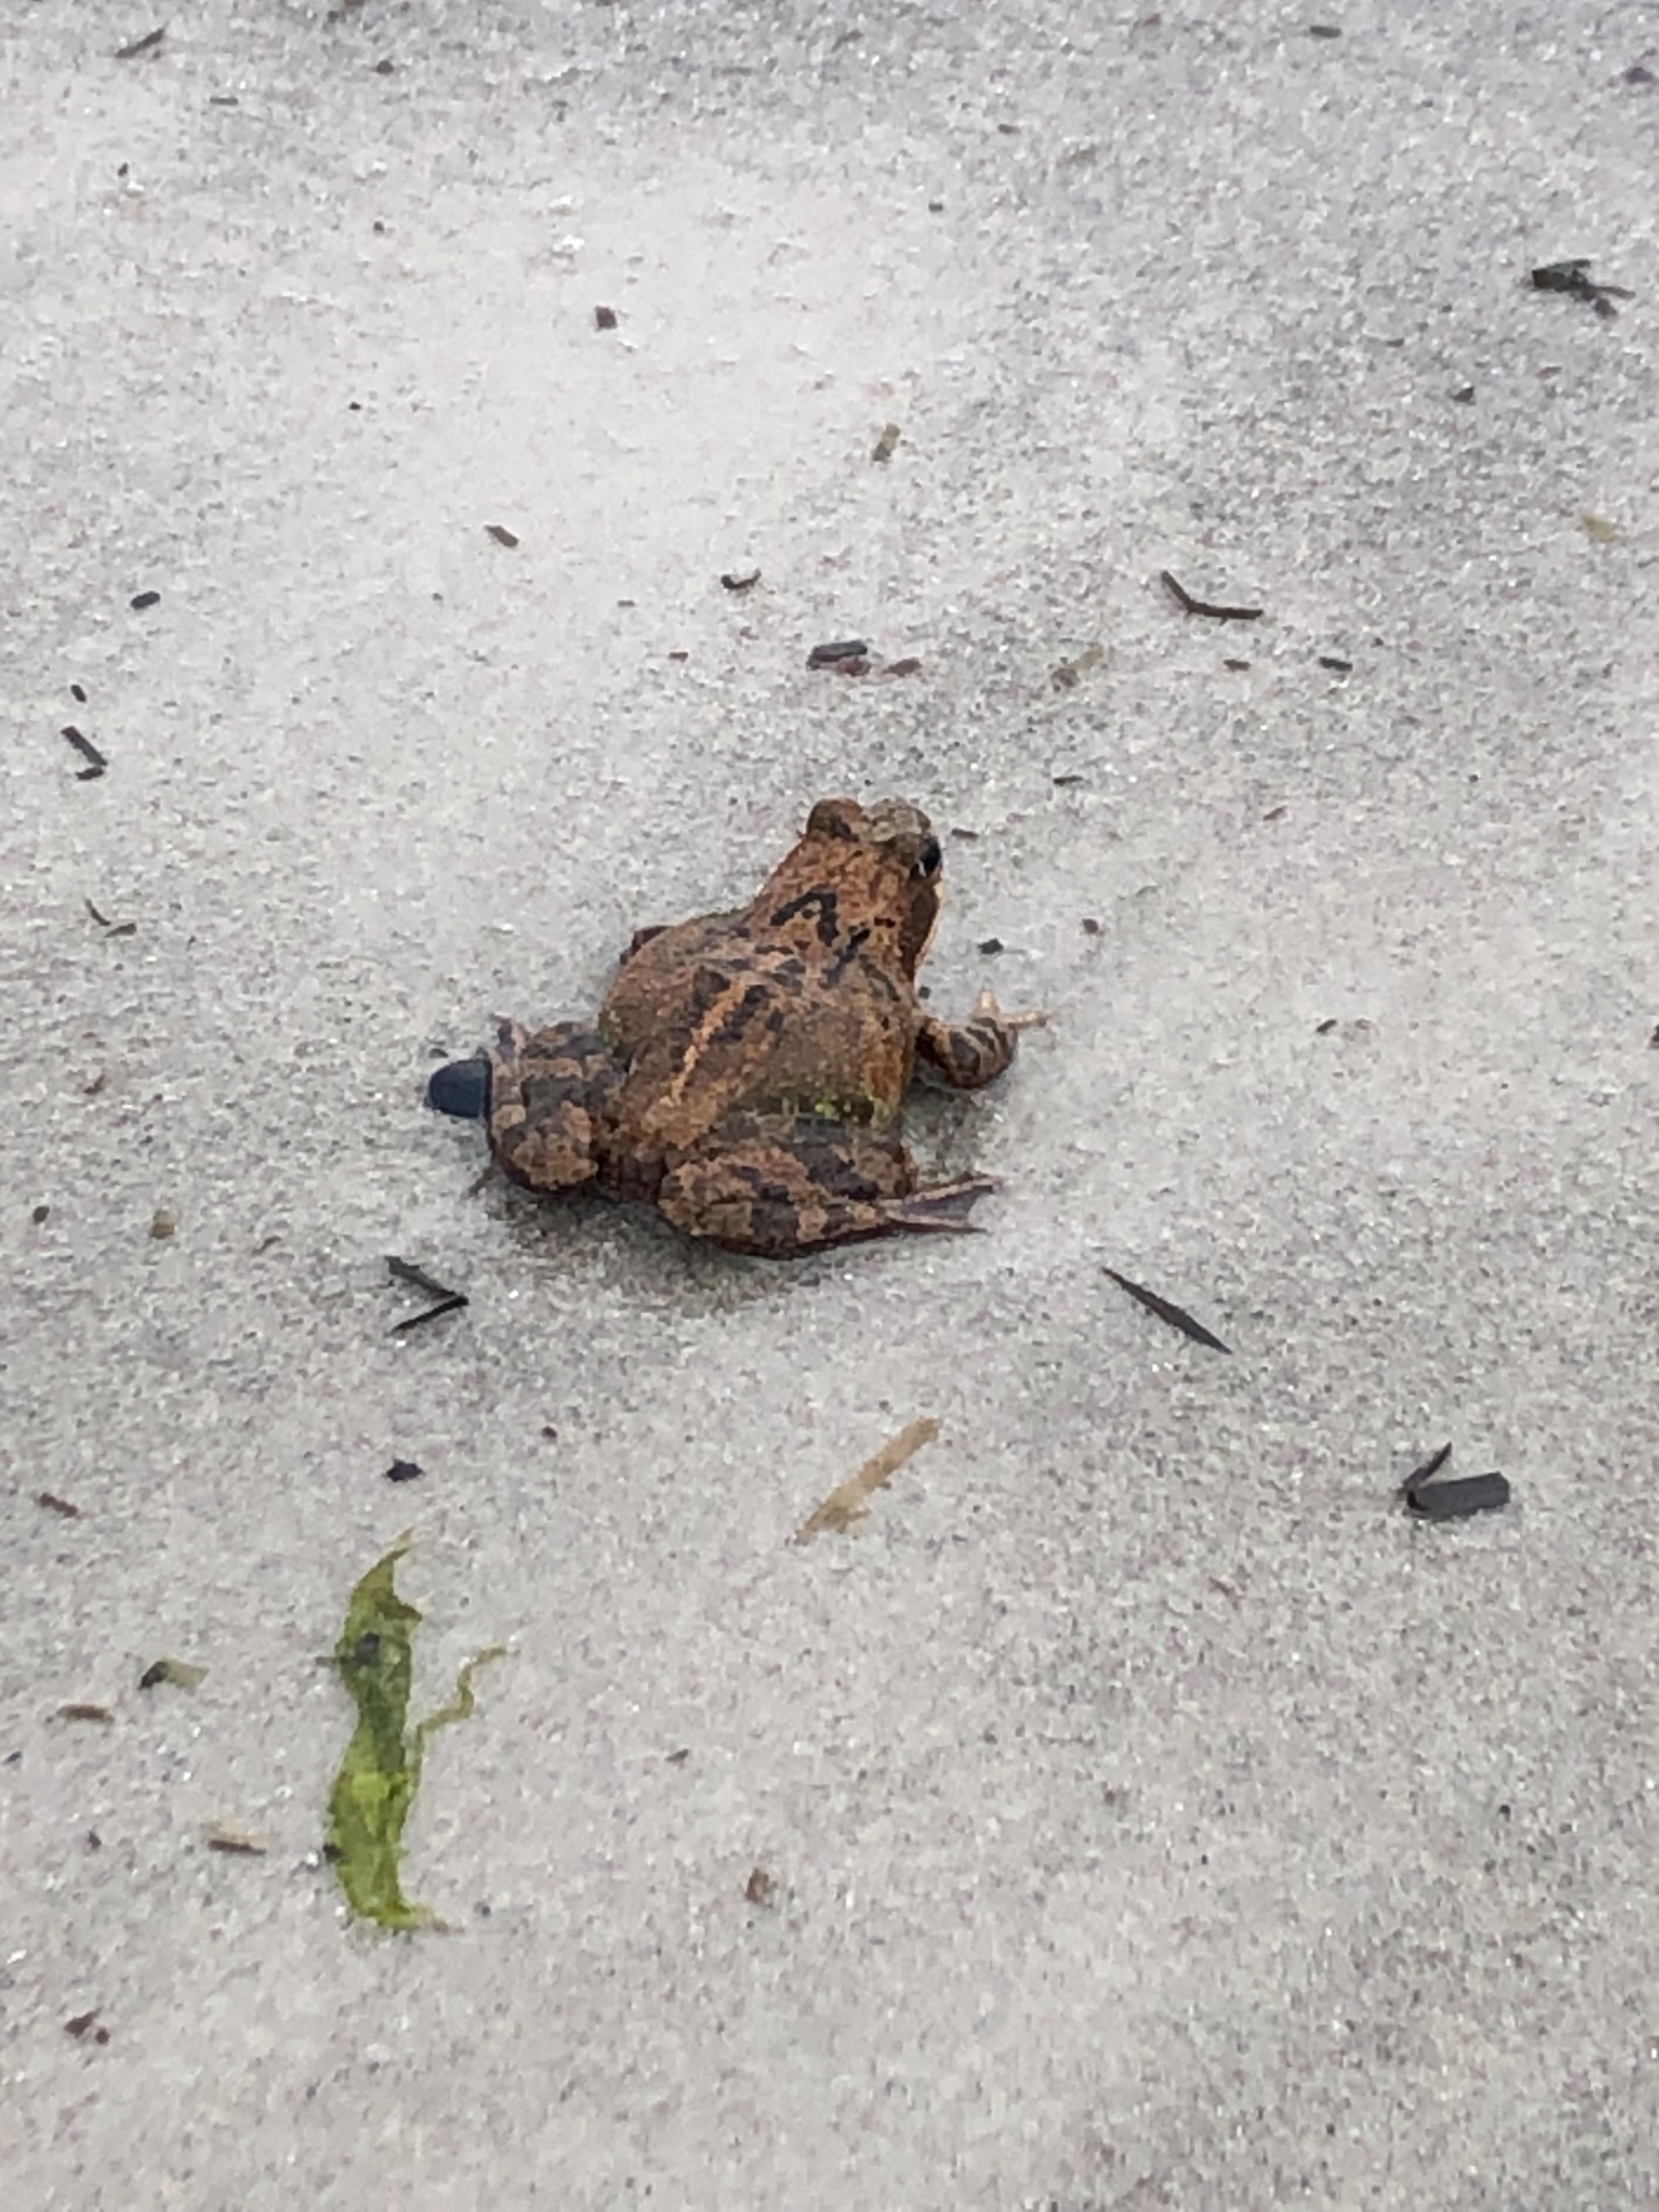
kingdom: Animalia
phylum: Chordata
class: Amphibia
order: Anura
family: Ranidae
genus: Rana
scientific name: Rana temporaria
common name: Butsnudet frø
